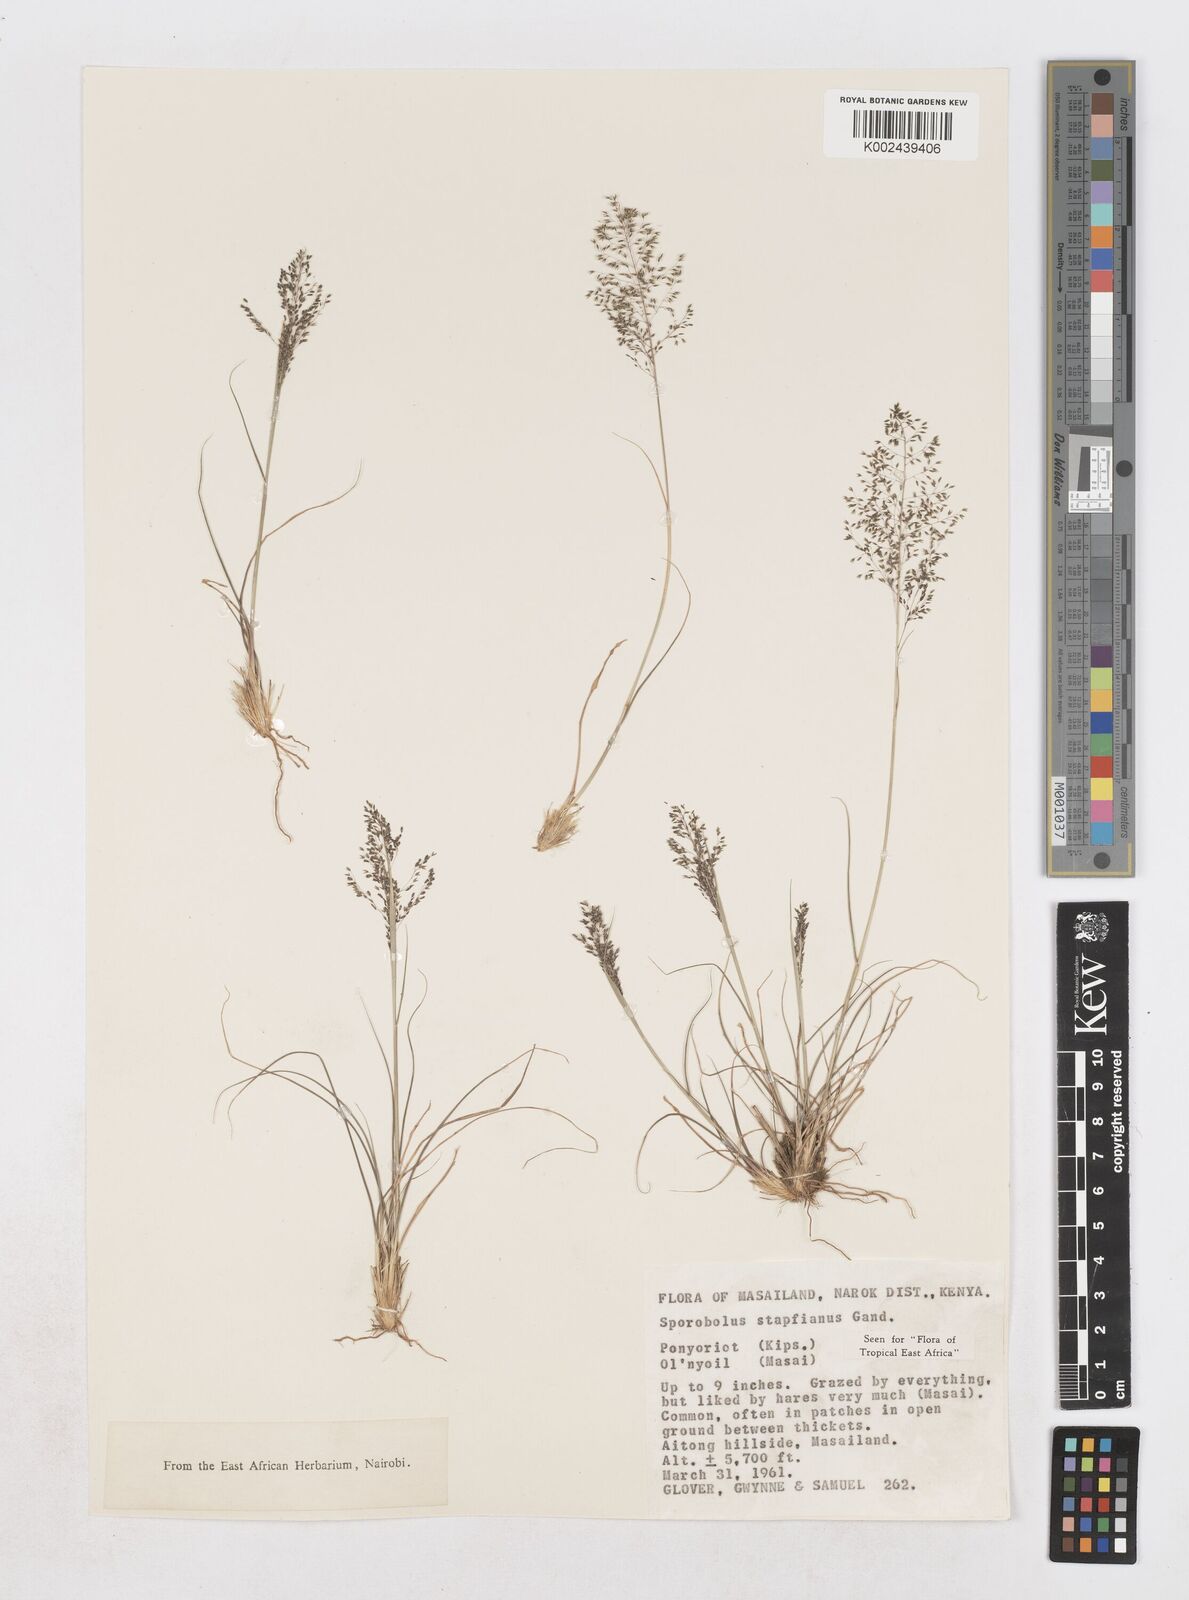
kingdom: Plantae
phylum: Tracheophyta
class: Liliopsida
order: Poales
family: Poaceae
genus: Sporobolus
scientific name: Sporobolus stapfianus
